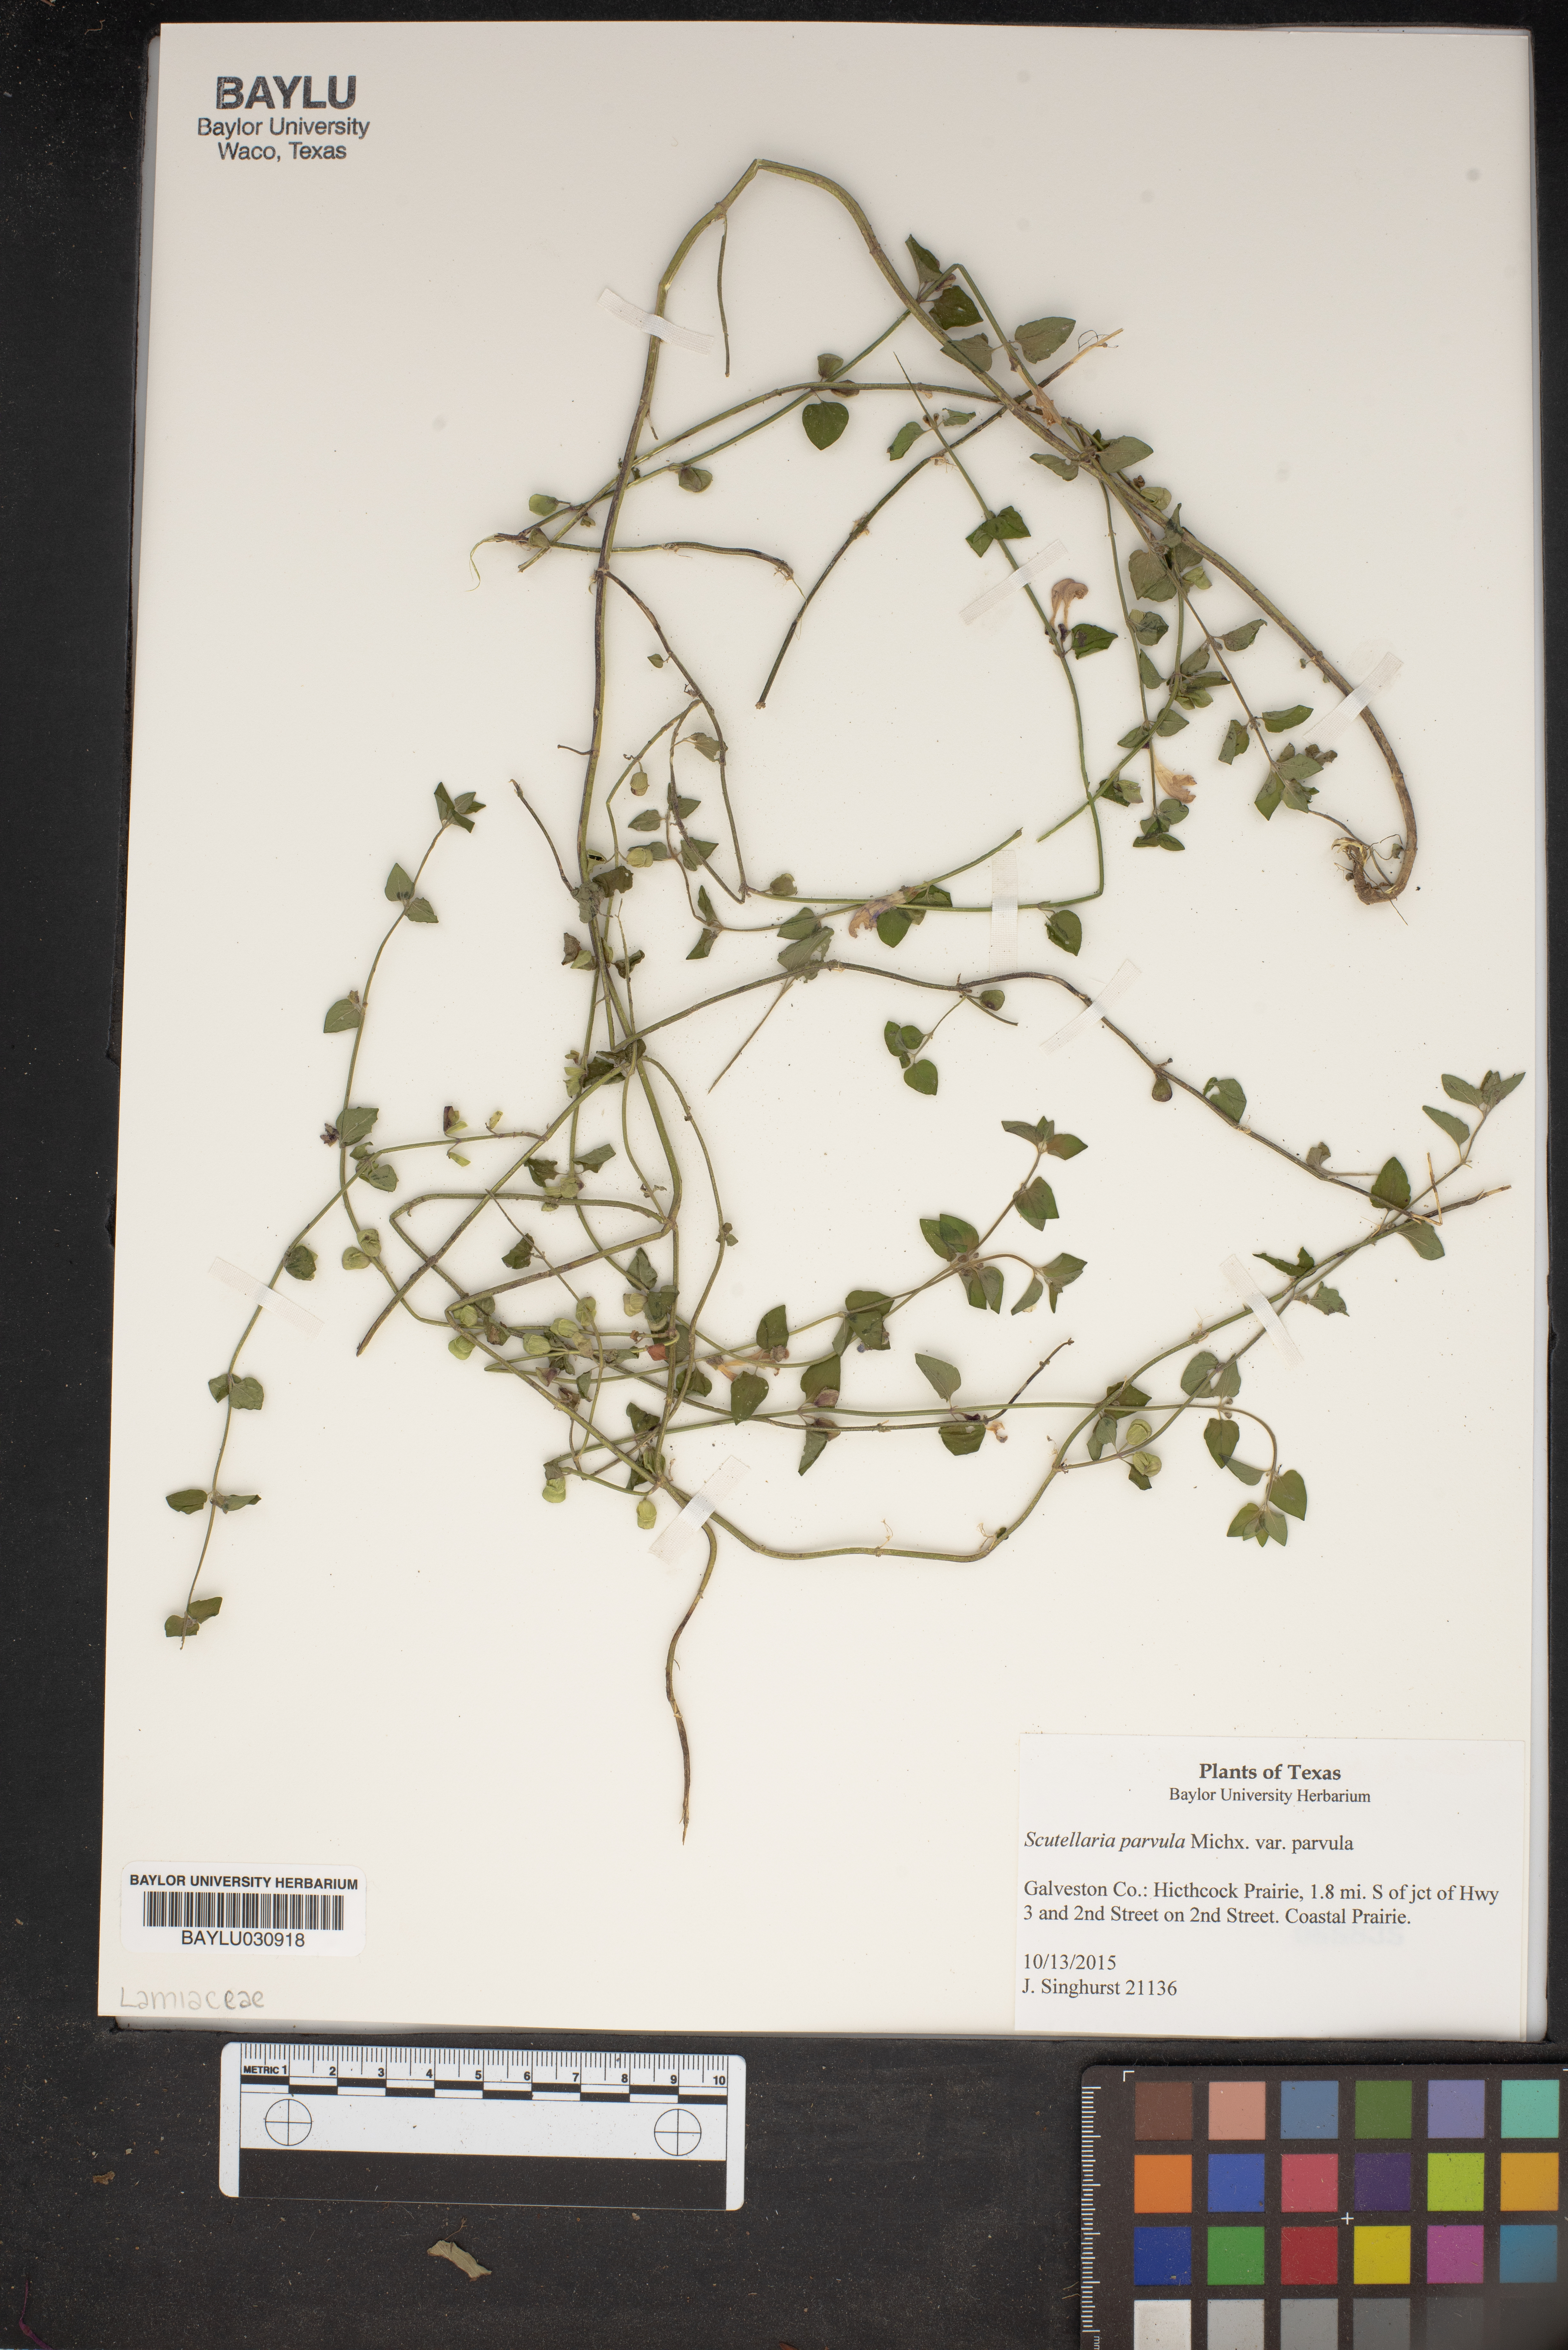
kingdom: Plantae
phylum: Tracheophyta
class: Magnoliopsida
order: Lamiales
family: Lamiaceae
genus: Scutellaria
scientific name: Scutellaria parvula
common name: Little scullcap
